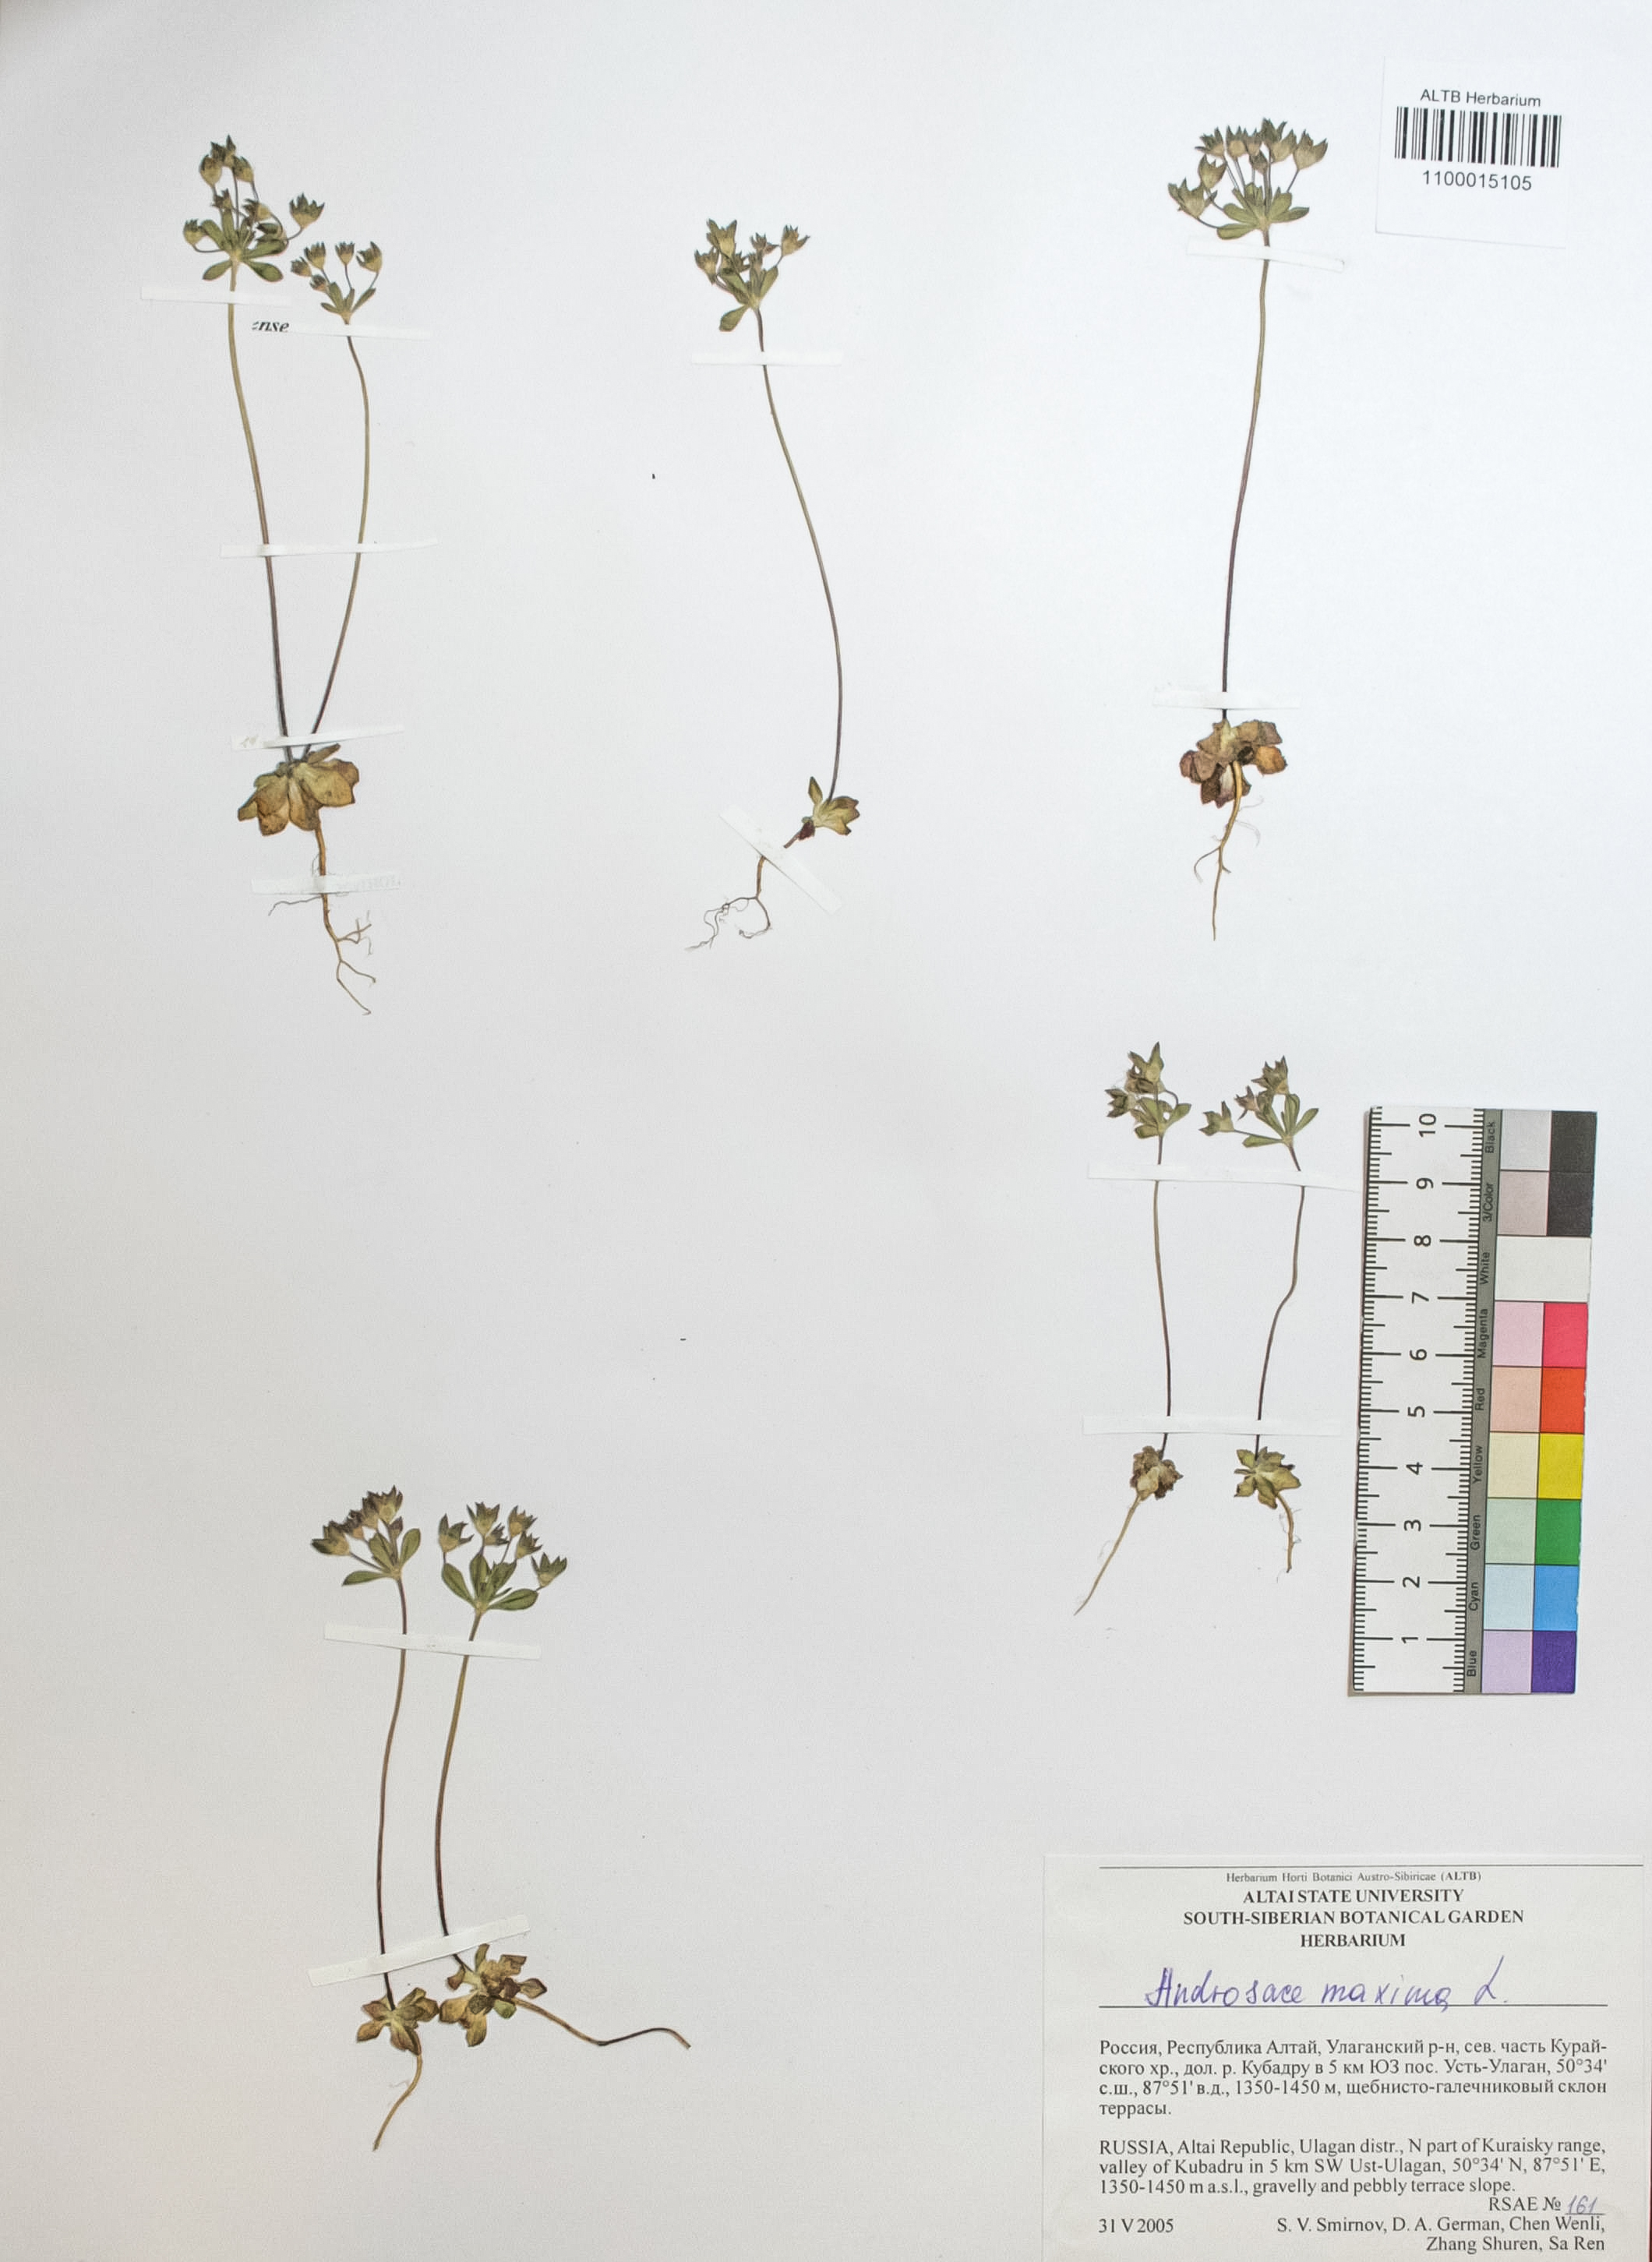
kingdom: Plantae
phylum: Tracheophyta
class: Magnoliopsida
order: Ericales
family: Primulaceae
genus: Androsace
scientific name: Androsace maxima
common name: Annual androsace
